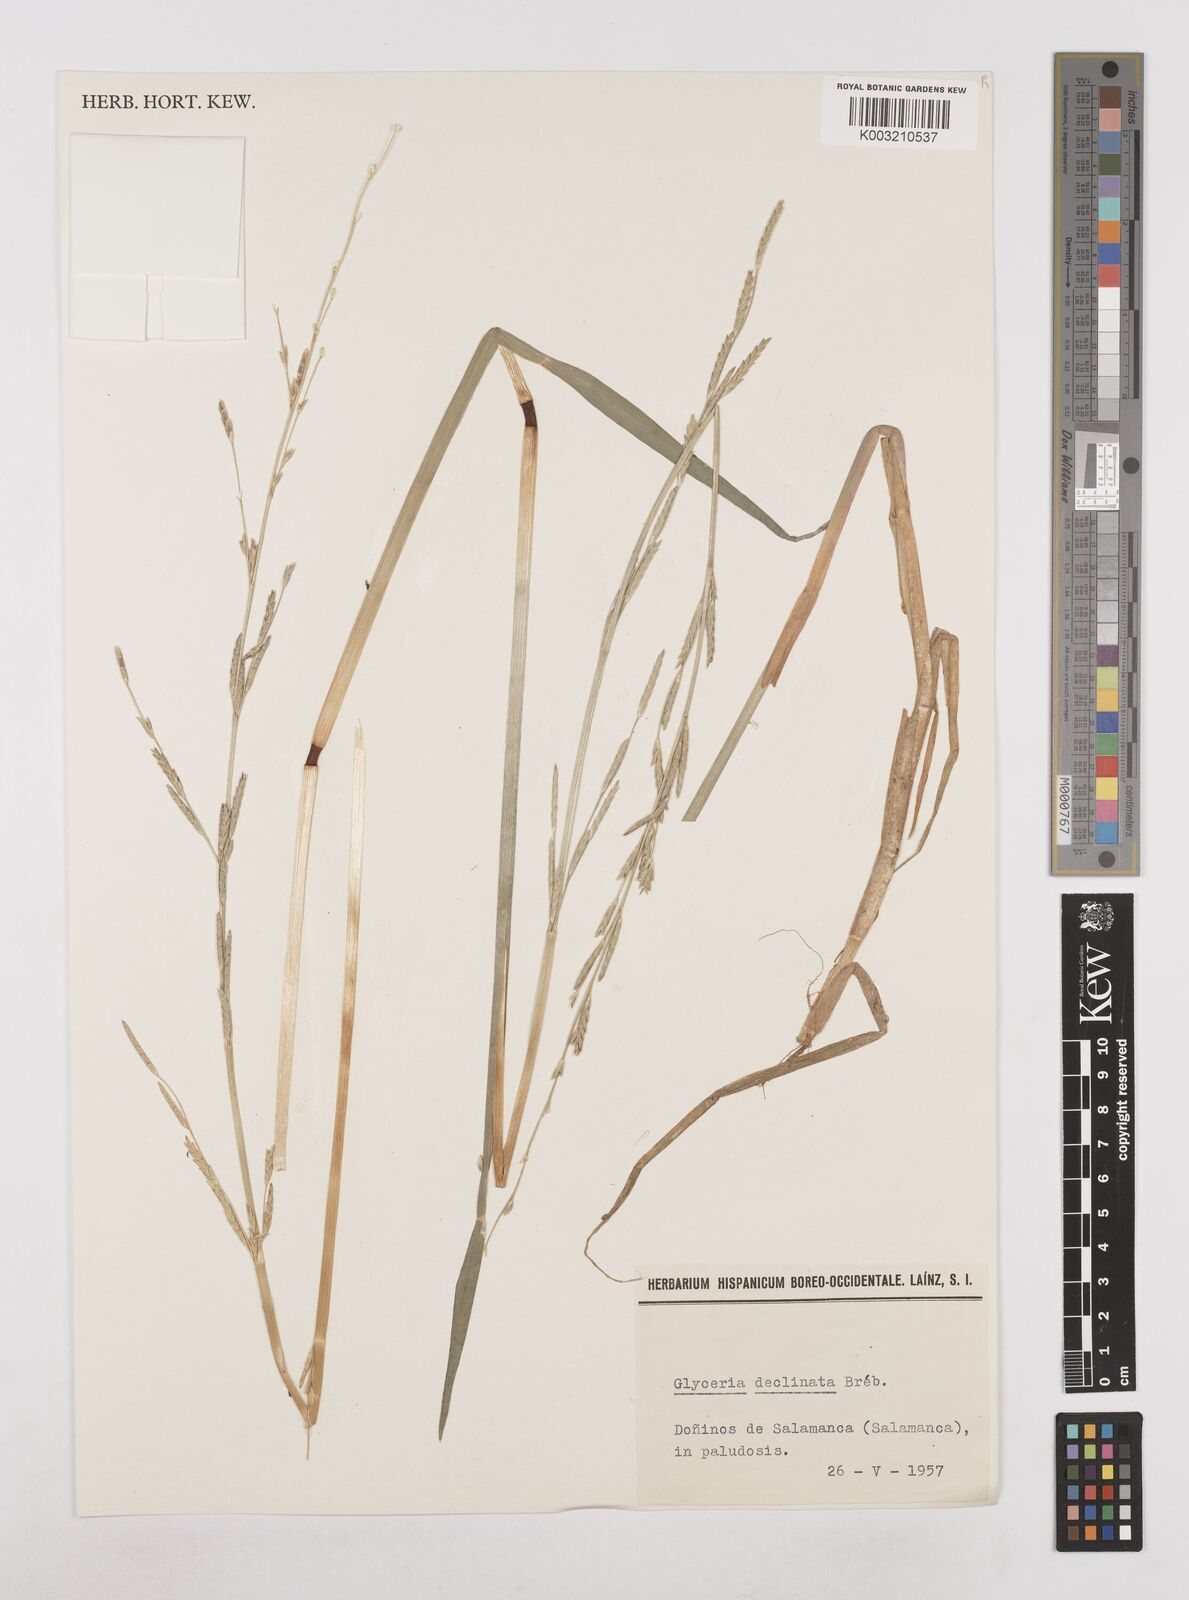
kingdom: Plantae
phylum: Tracheophyta
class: Liliopsida
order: Poales
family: Poaceae
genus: Glyceria
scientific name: Glyceria declinata
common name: Small sweet-grass
